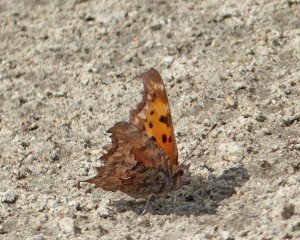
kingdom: Animalia
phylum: Arthropoda
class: Insecta
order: Lepidoptera
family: Nymphalidae
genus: Polygonia
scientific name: Polygonia gracilis
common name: Hoary Comma
